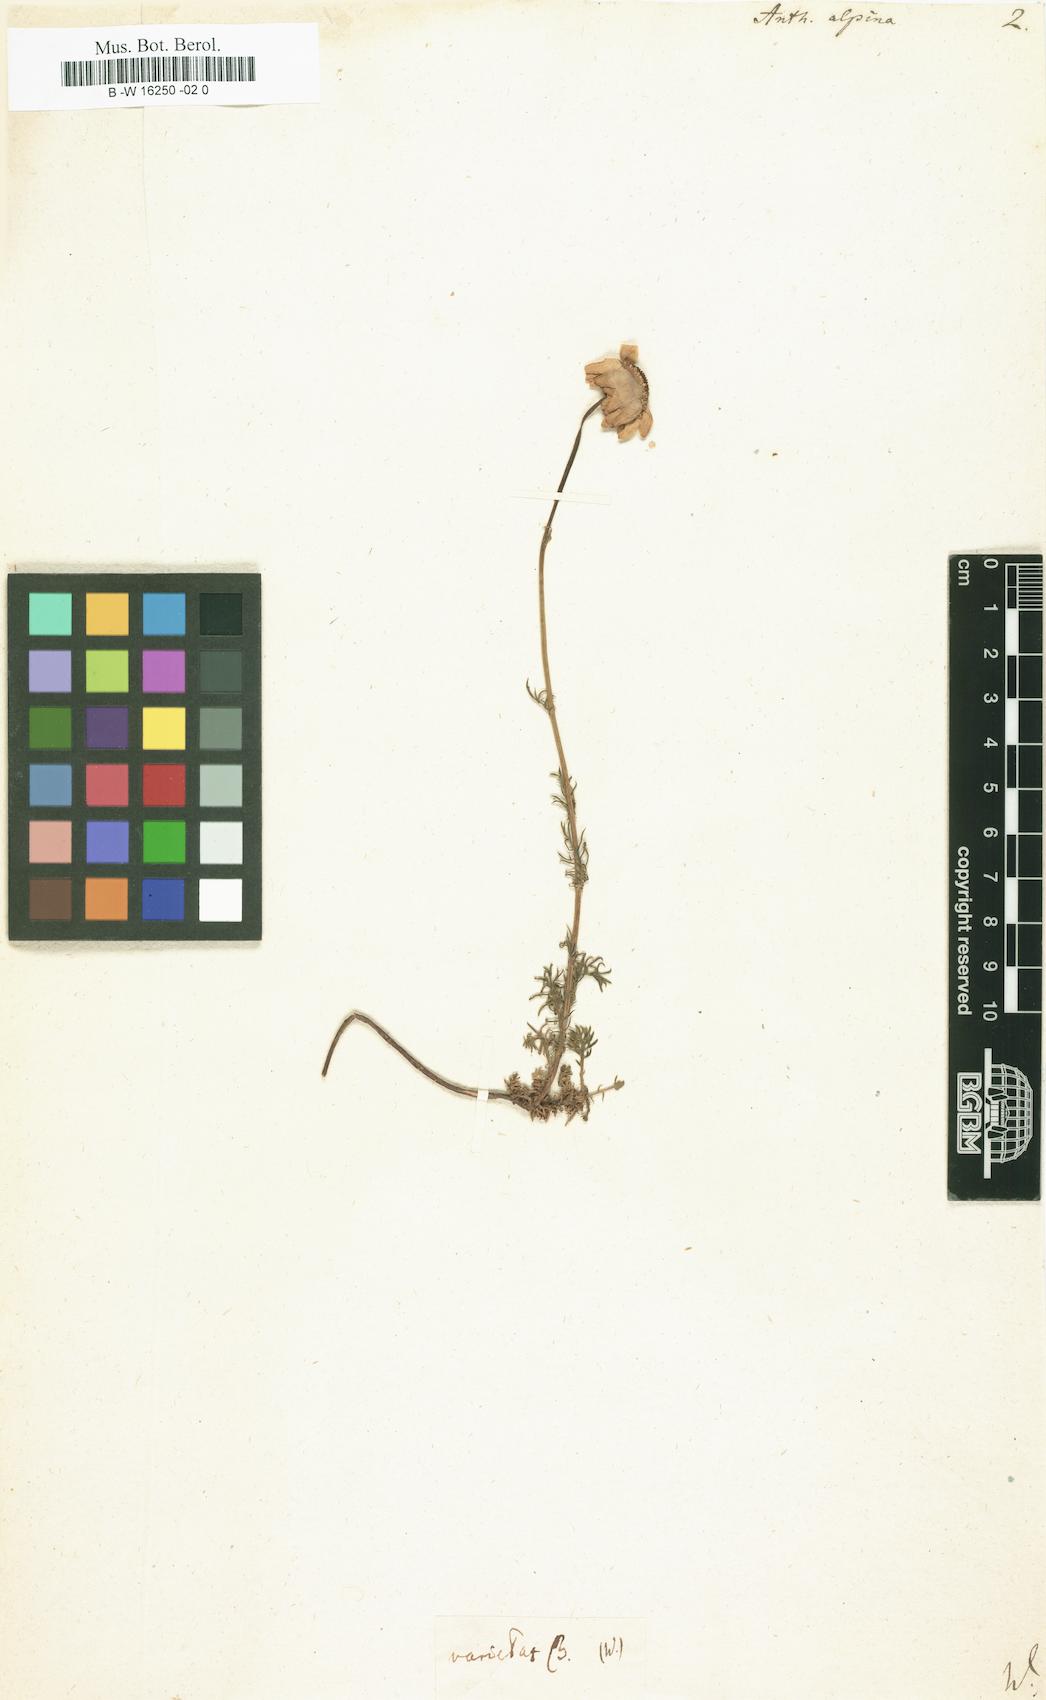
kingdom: Plantae
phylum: Tracheophyta
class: Magnoliopsida
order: Asterales
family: Asteraceae
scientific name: Asteraceae
